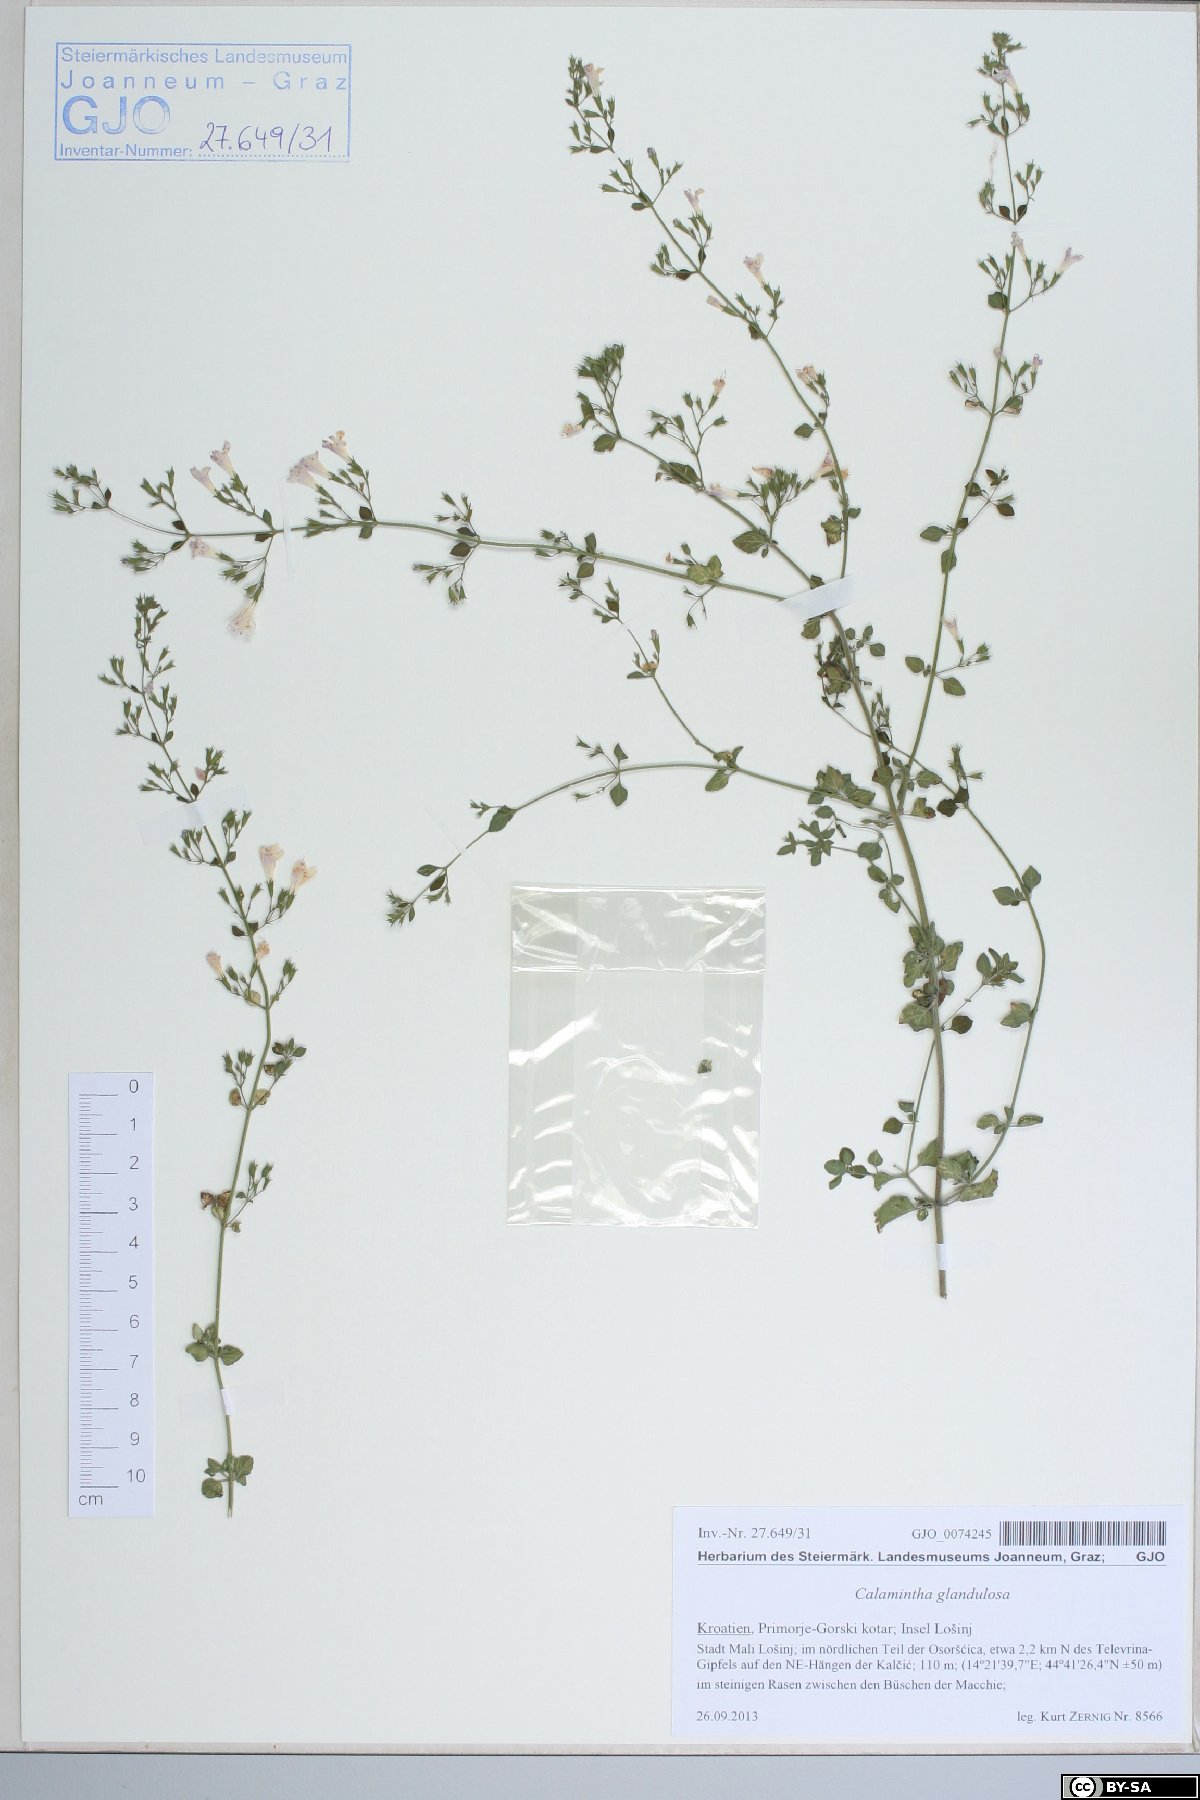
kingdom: Plantae
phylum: Tracheophyta
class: Magnoliopsida
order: Lamiales
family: Lamiaceae
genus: Clinopodium
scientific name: Clinopodium nepeta
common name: Lesser calamint
